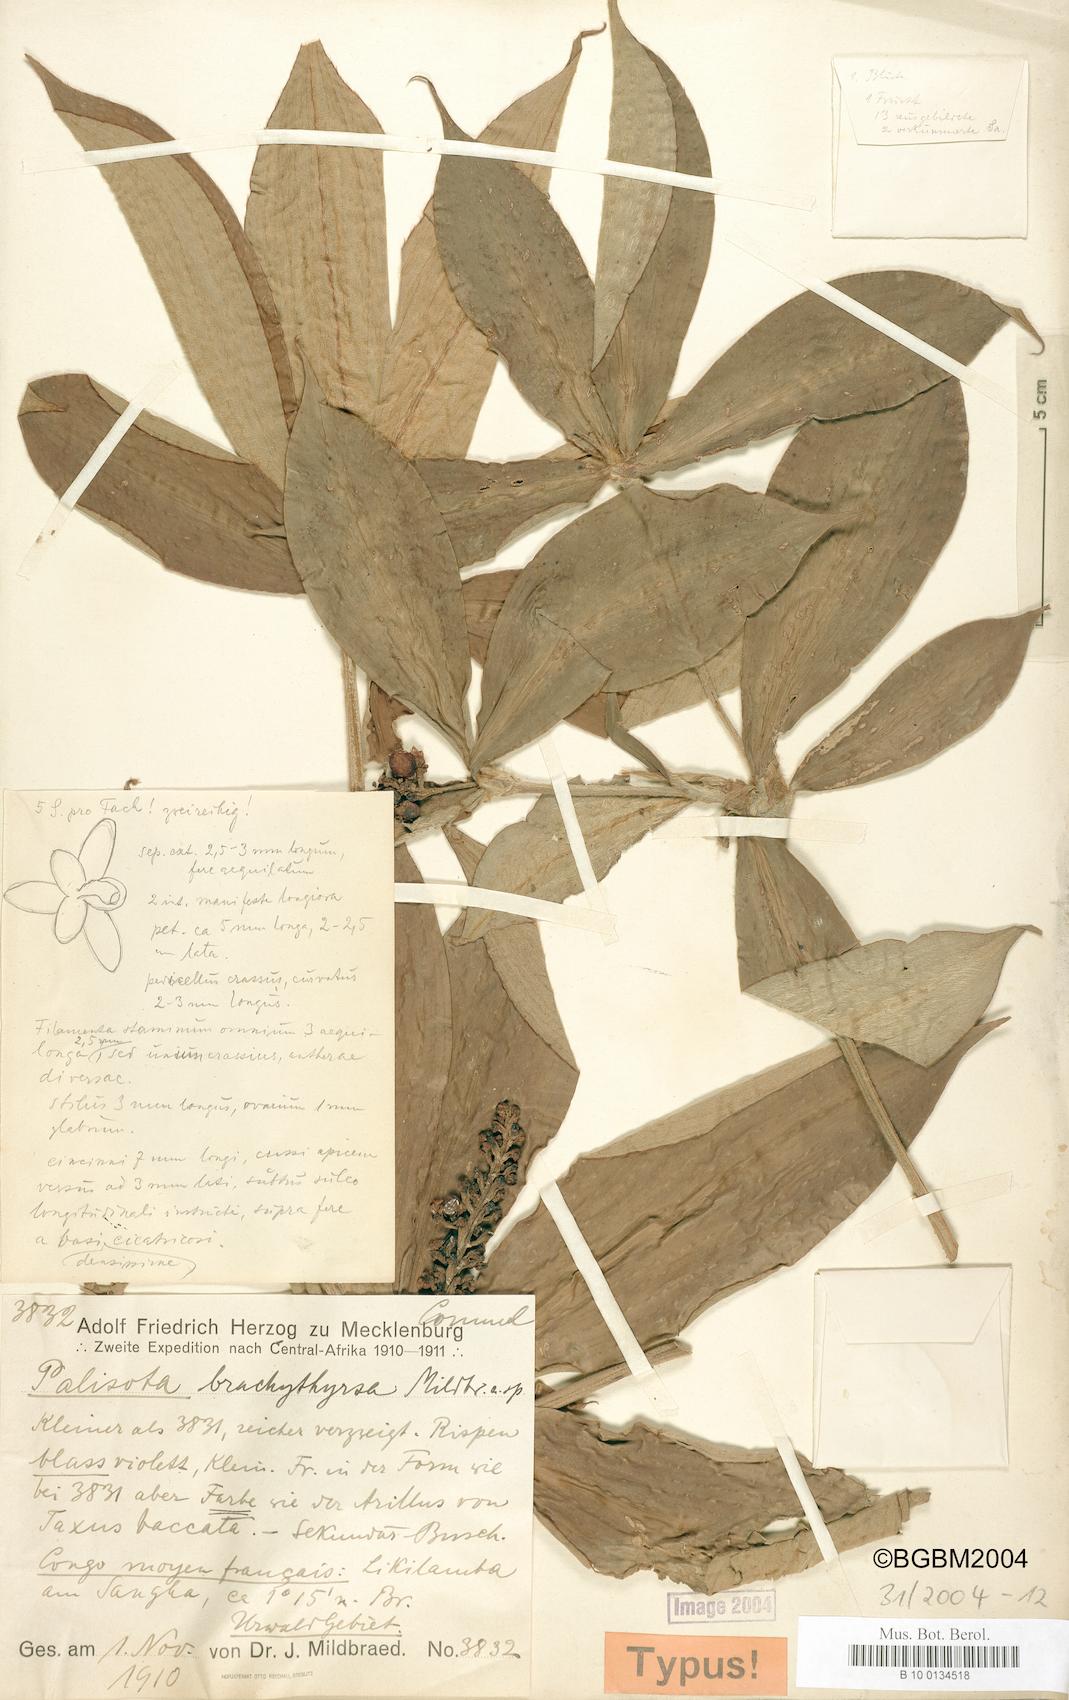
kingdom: Plantae
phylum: Tracheophyta
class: Liliopsida
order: Commelinales
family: Commelinaceae
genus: Palisota
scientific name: Palisota brachythyrsa
